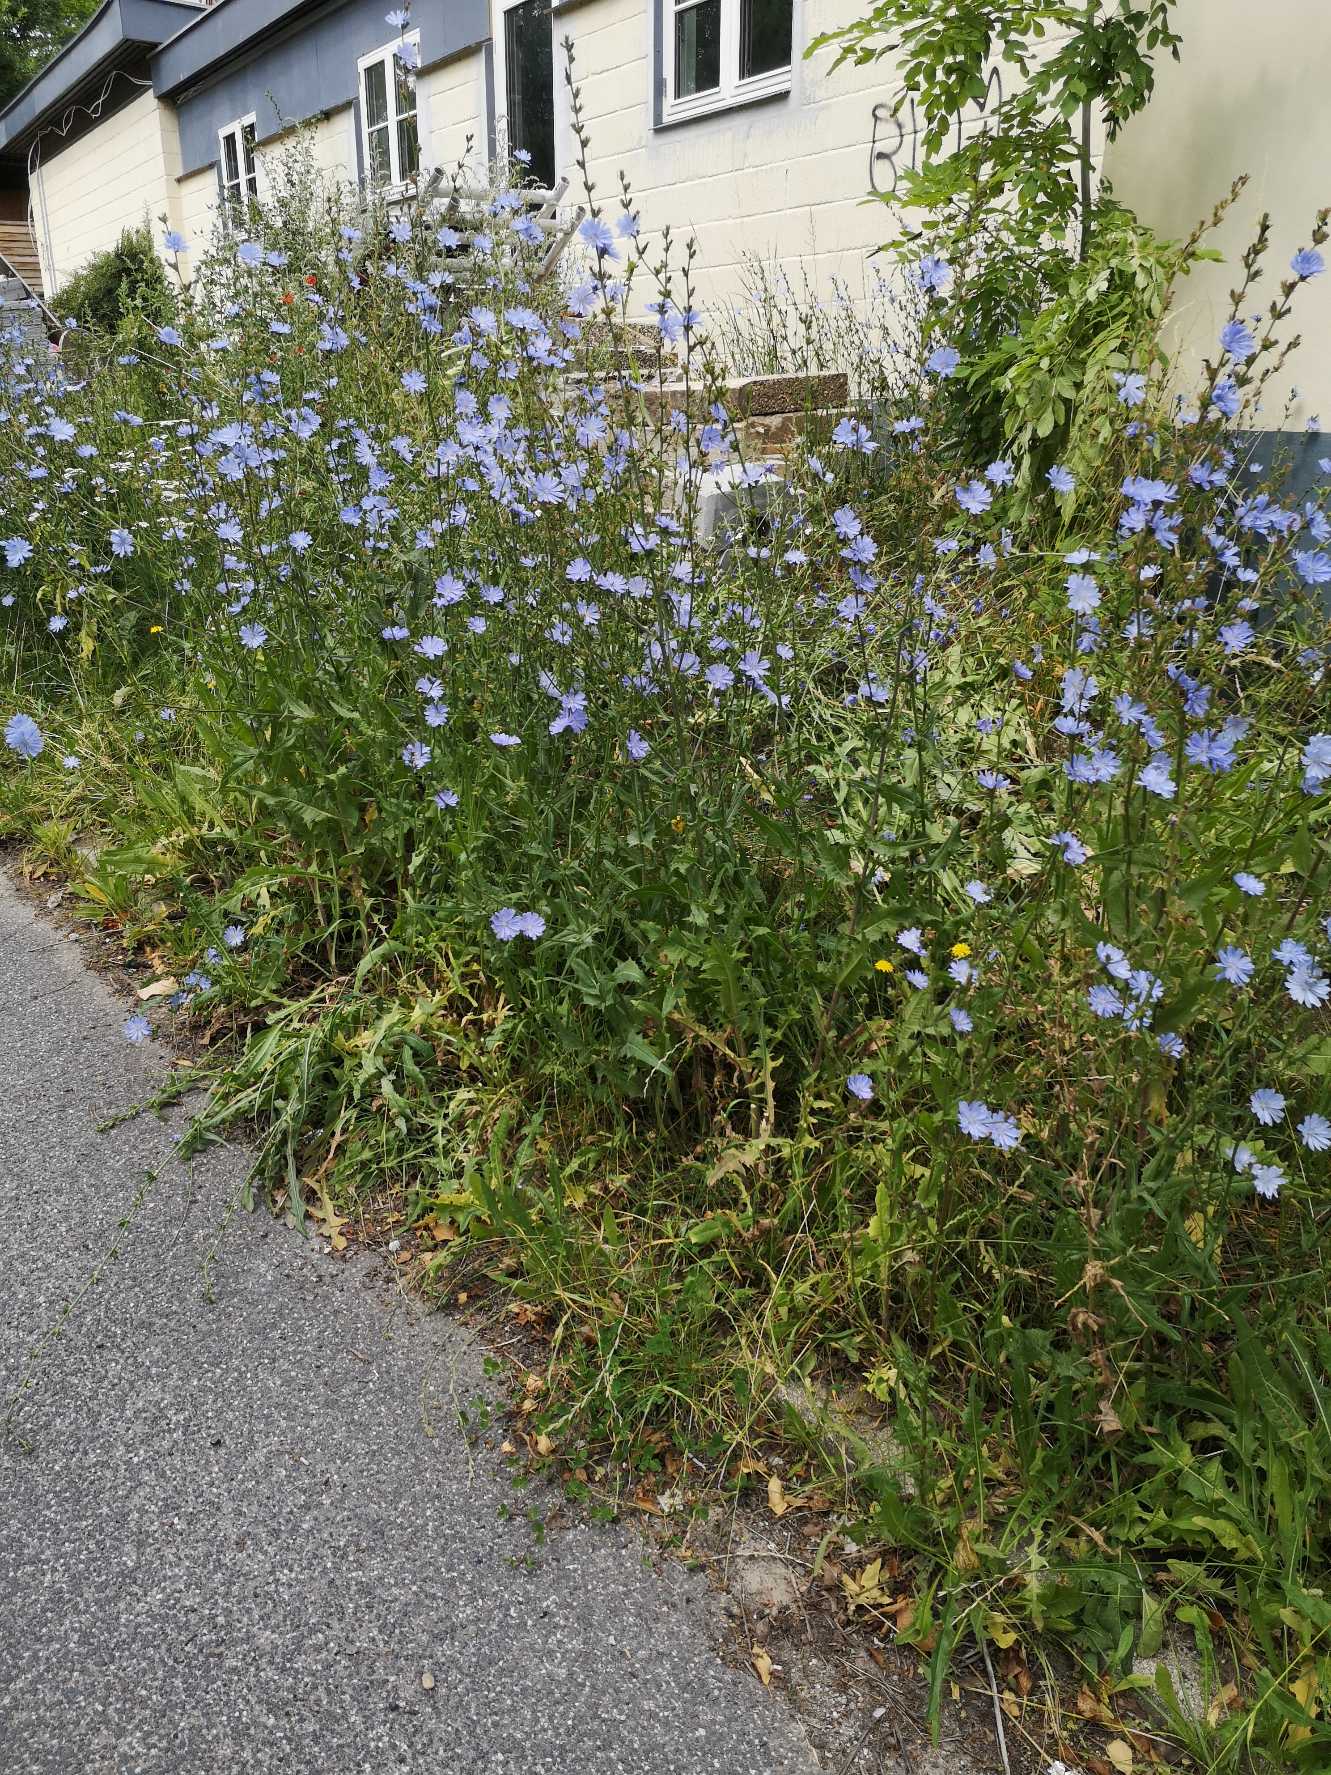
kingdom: Plantae
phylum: Tracheophyta
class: Magnoliopsida
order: Asterales
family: Asteraceae
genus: Cichorium
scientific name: Cichorium intybus
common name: Cikorie
